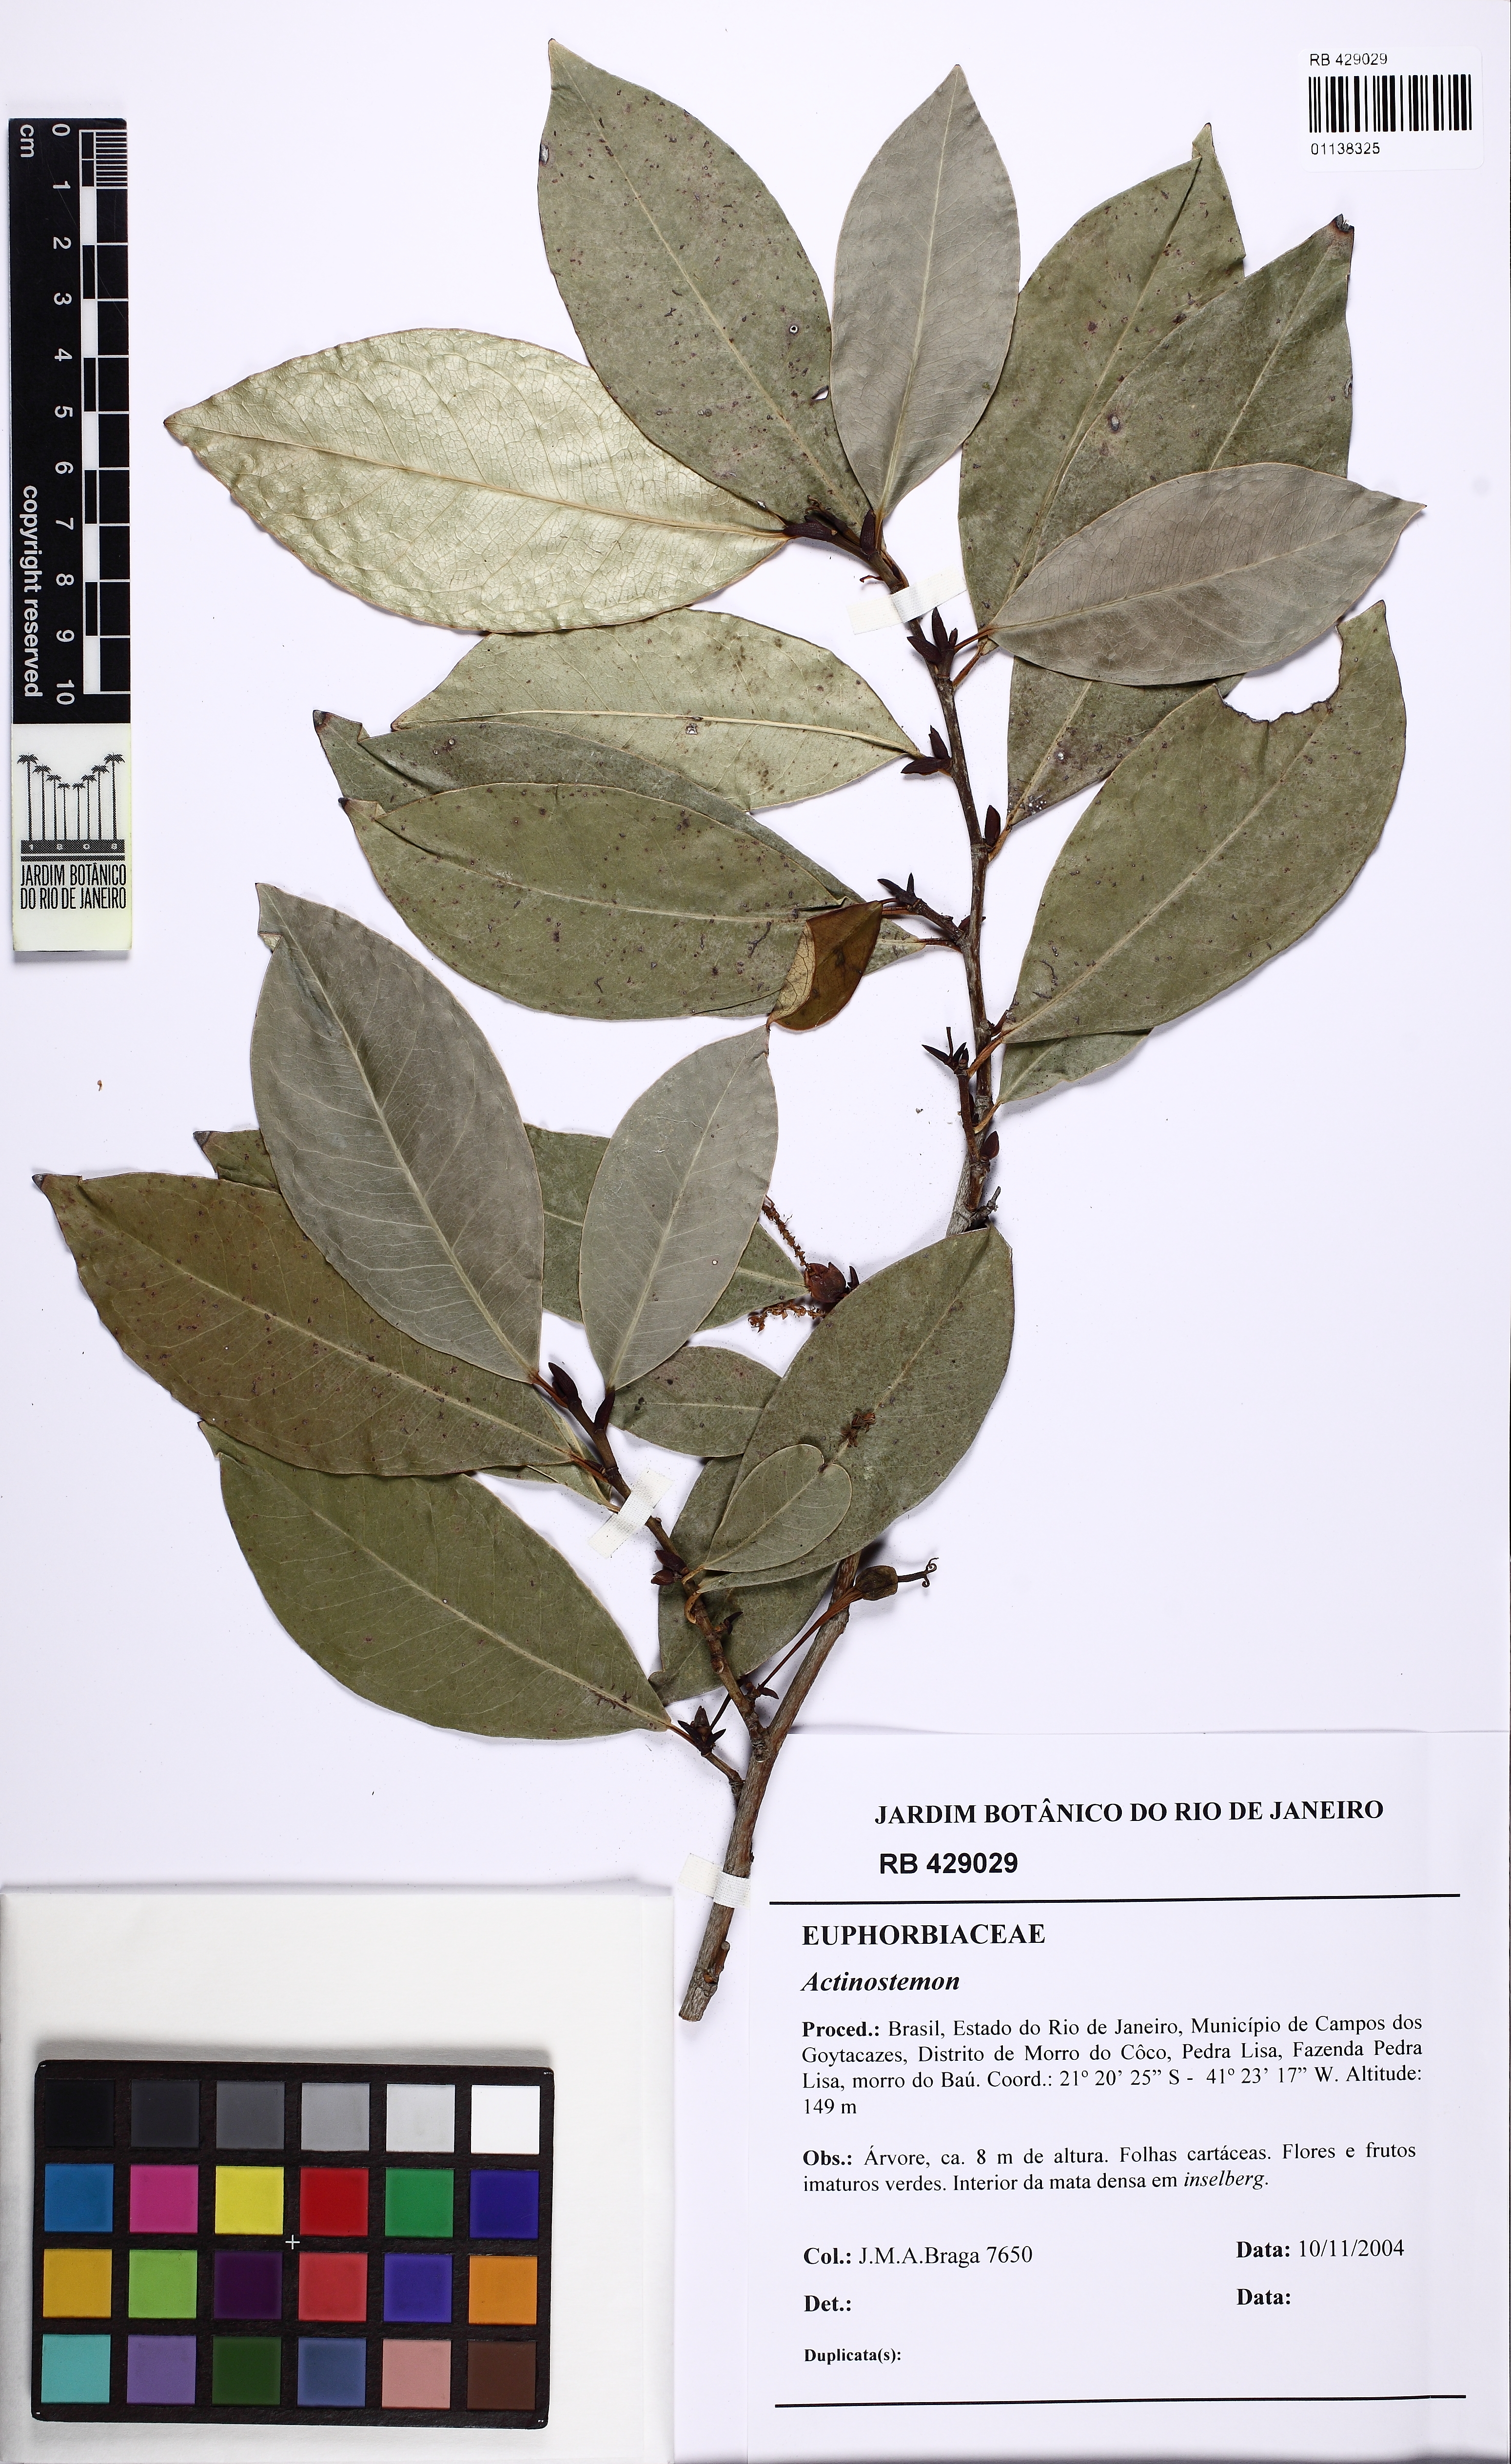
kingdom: Plantae
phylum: Tracheophyta
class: Magnoliopsida
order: Malpighiales
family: Euphorbiaceae
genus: Actinostemon
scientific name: Actinostemon concolor
